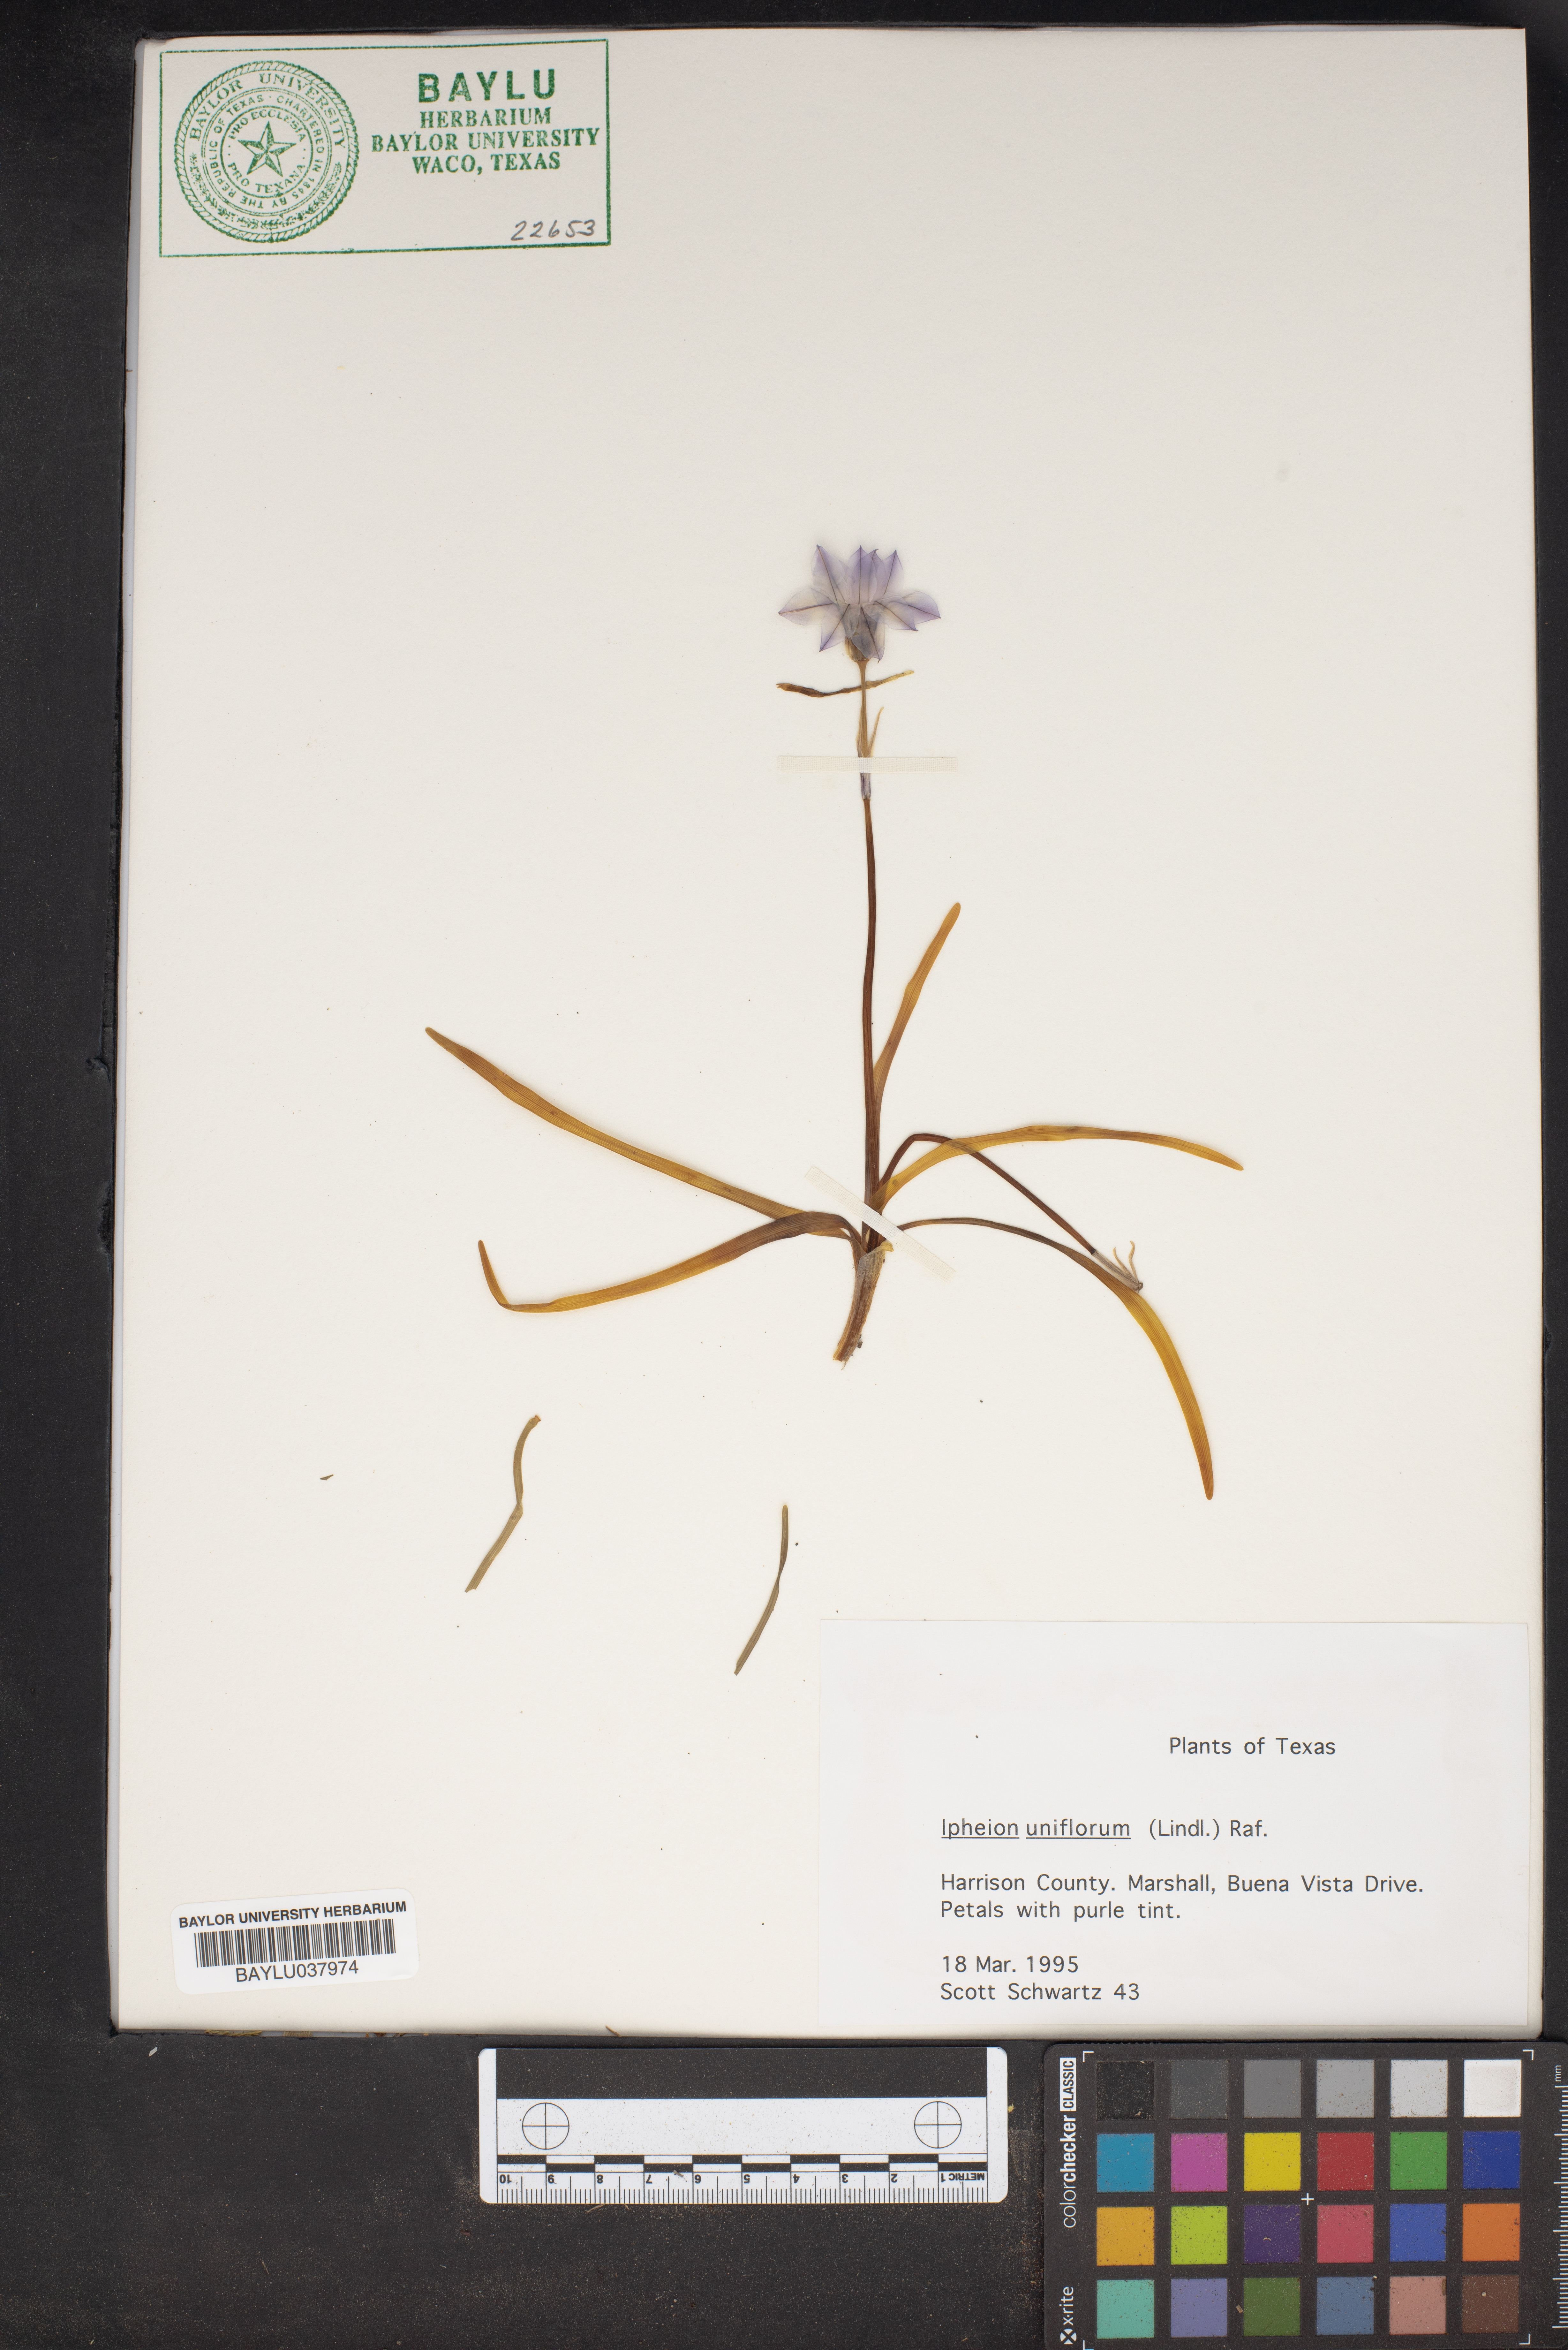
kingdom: Plantae
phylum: Tracheophyta
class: Liliopsida
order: Asparagales
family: Amaryllidaceae
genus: Ipheion
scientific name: Ipheion uniflorum
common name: Spring starflower
